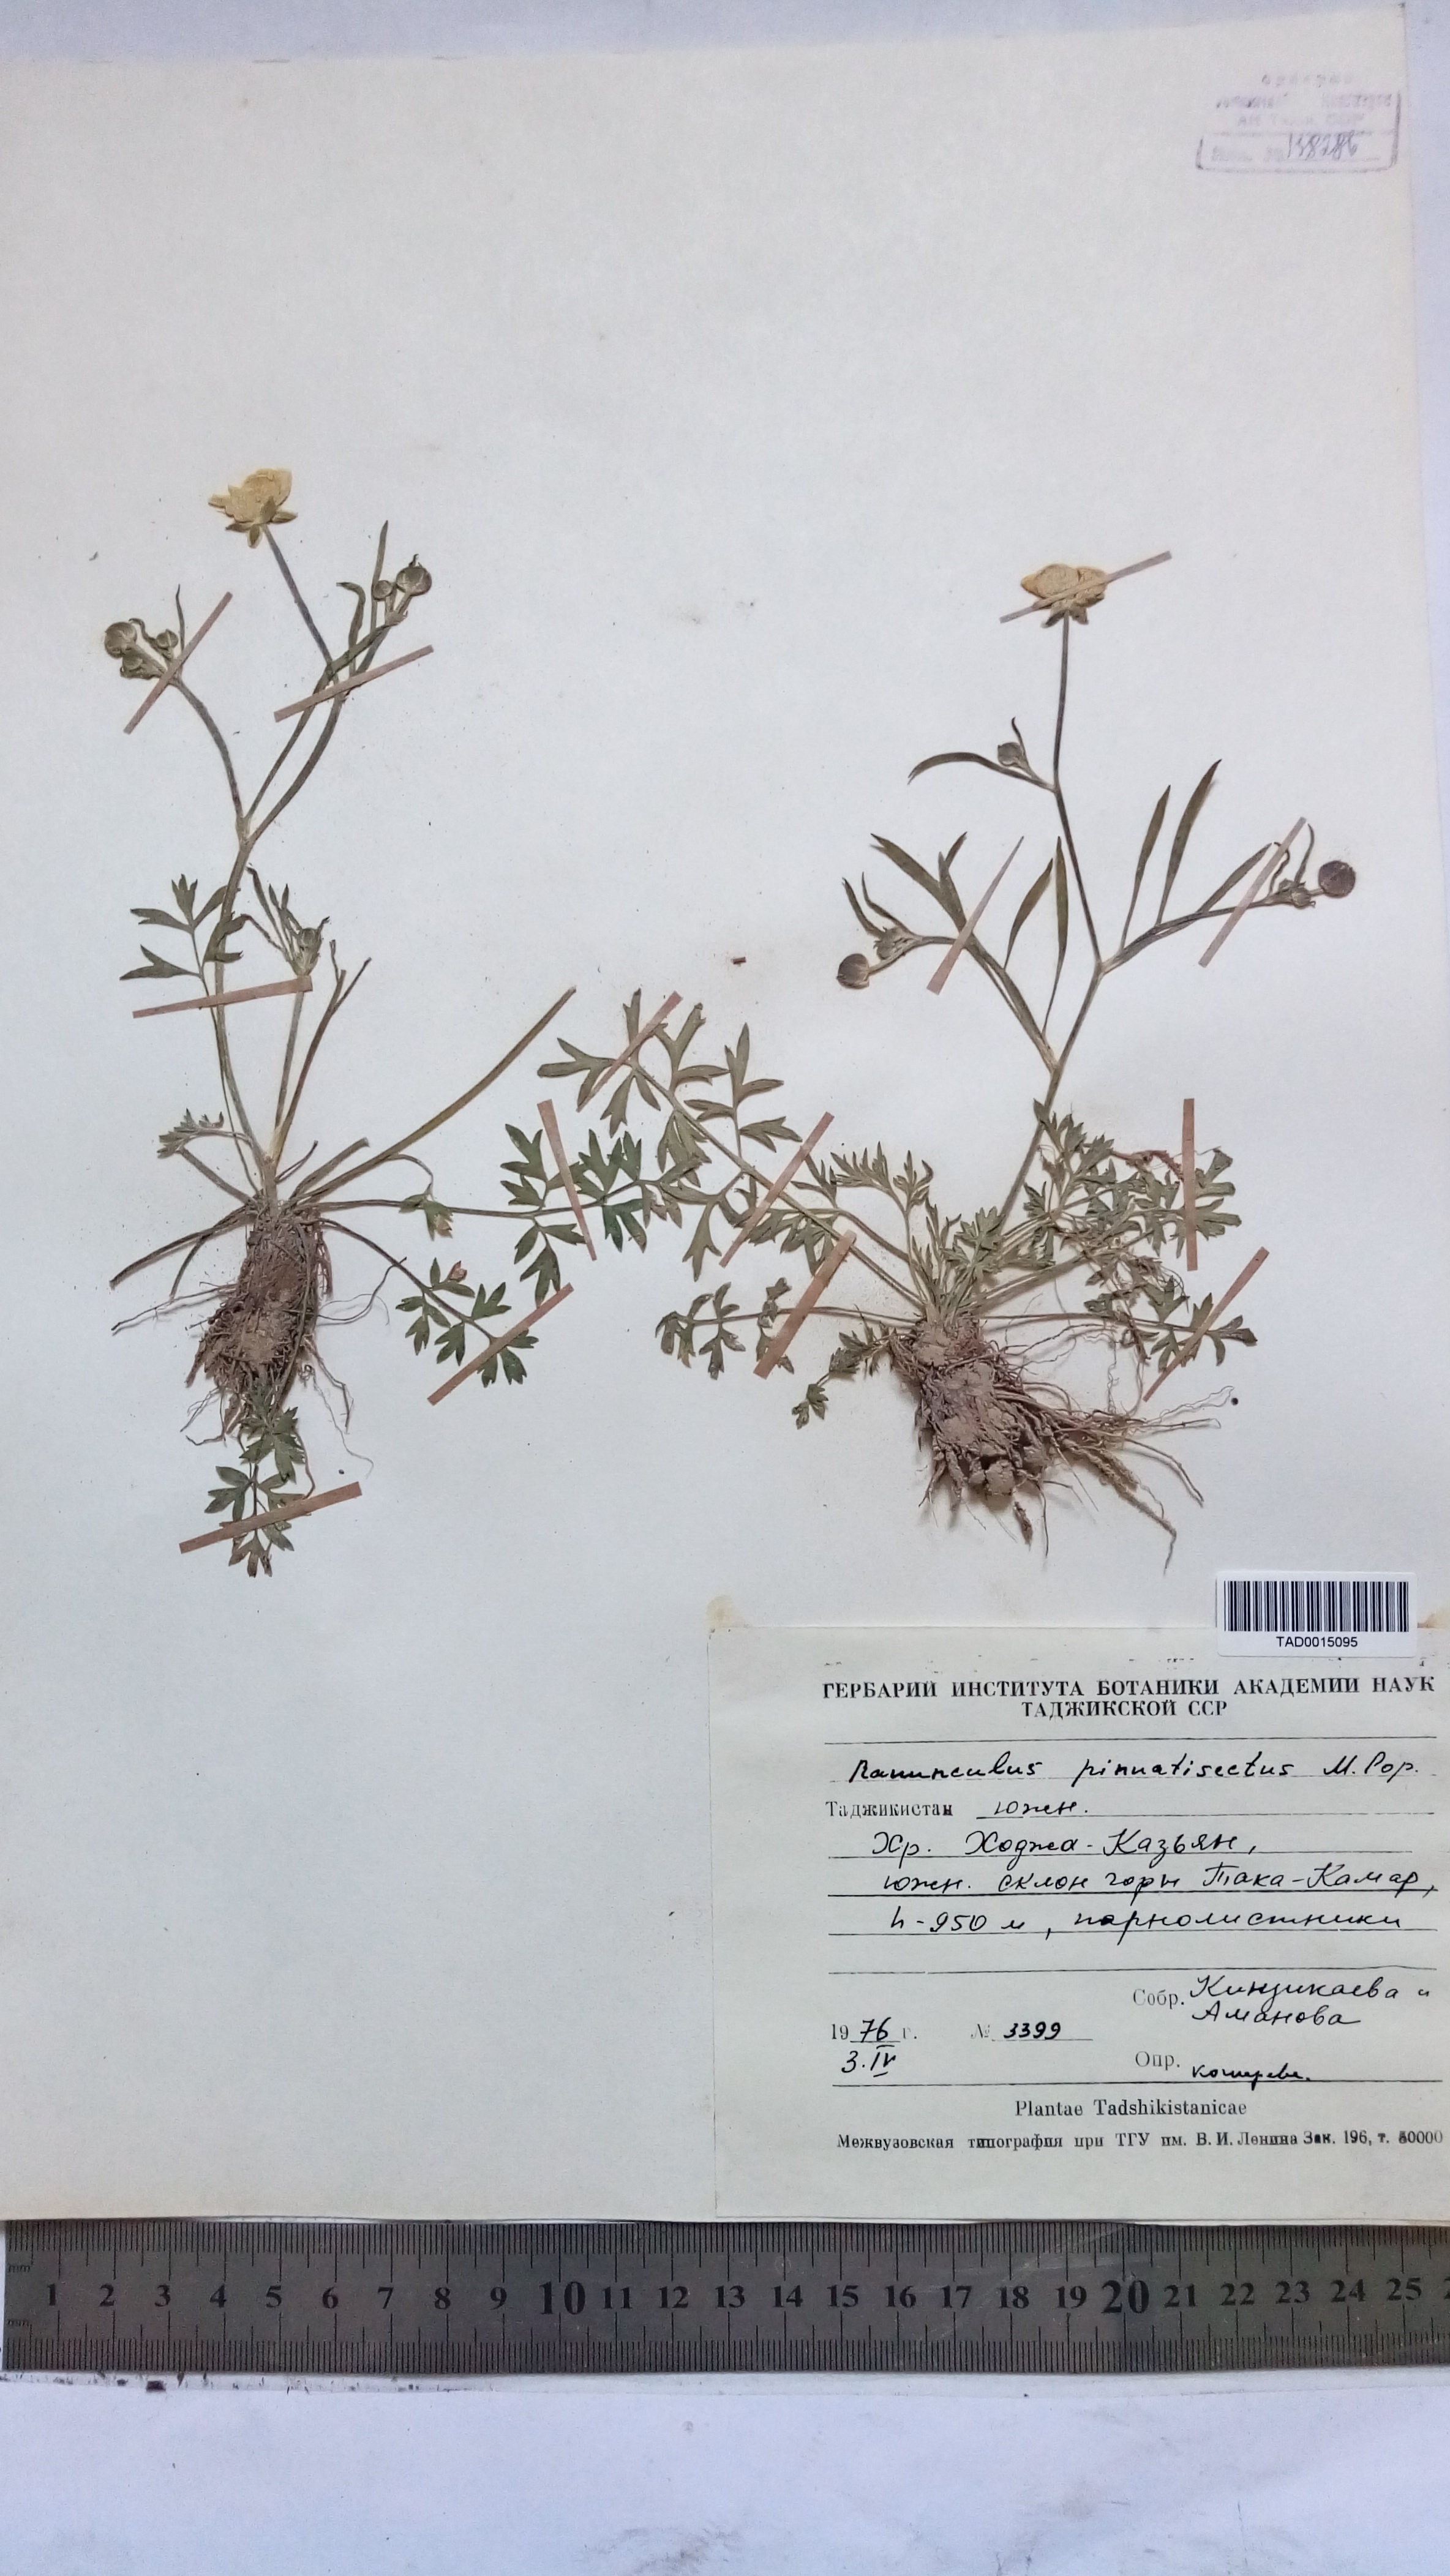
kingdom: Plantae
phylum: Tracheophyta
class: Magnoliopsida
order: Ranunculales
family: Ranunculaceae
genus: Ranunculus
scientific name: Ranunculus pinnatisectus
